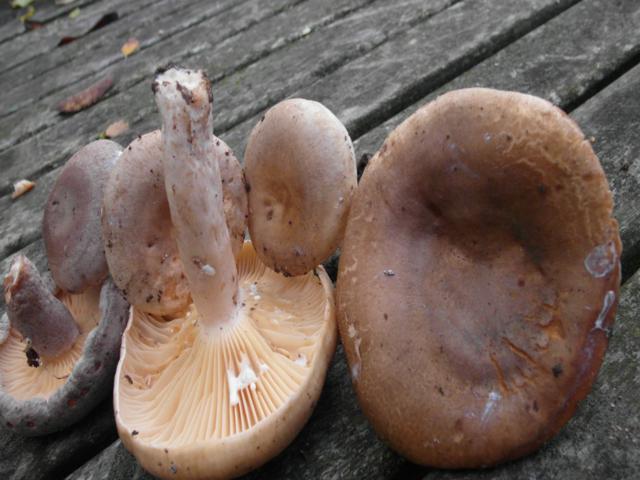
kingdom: Fungi
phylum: Basidiomycota
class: Agaricomycetes
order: Russulales
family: Russulaceae
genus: Lactarius
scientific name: Lactarius pyrogalus
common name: hassel-mælkehat
